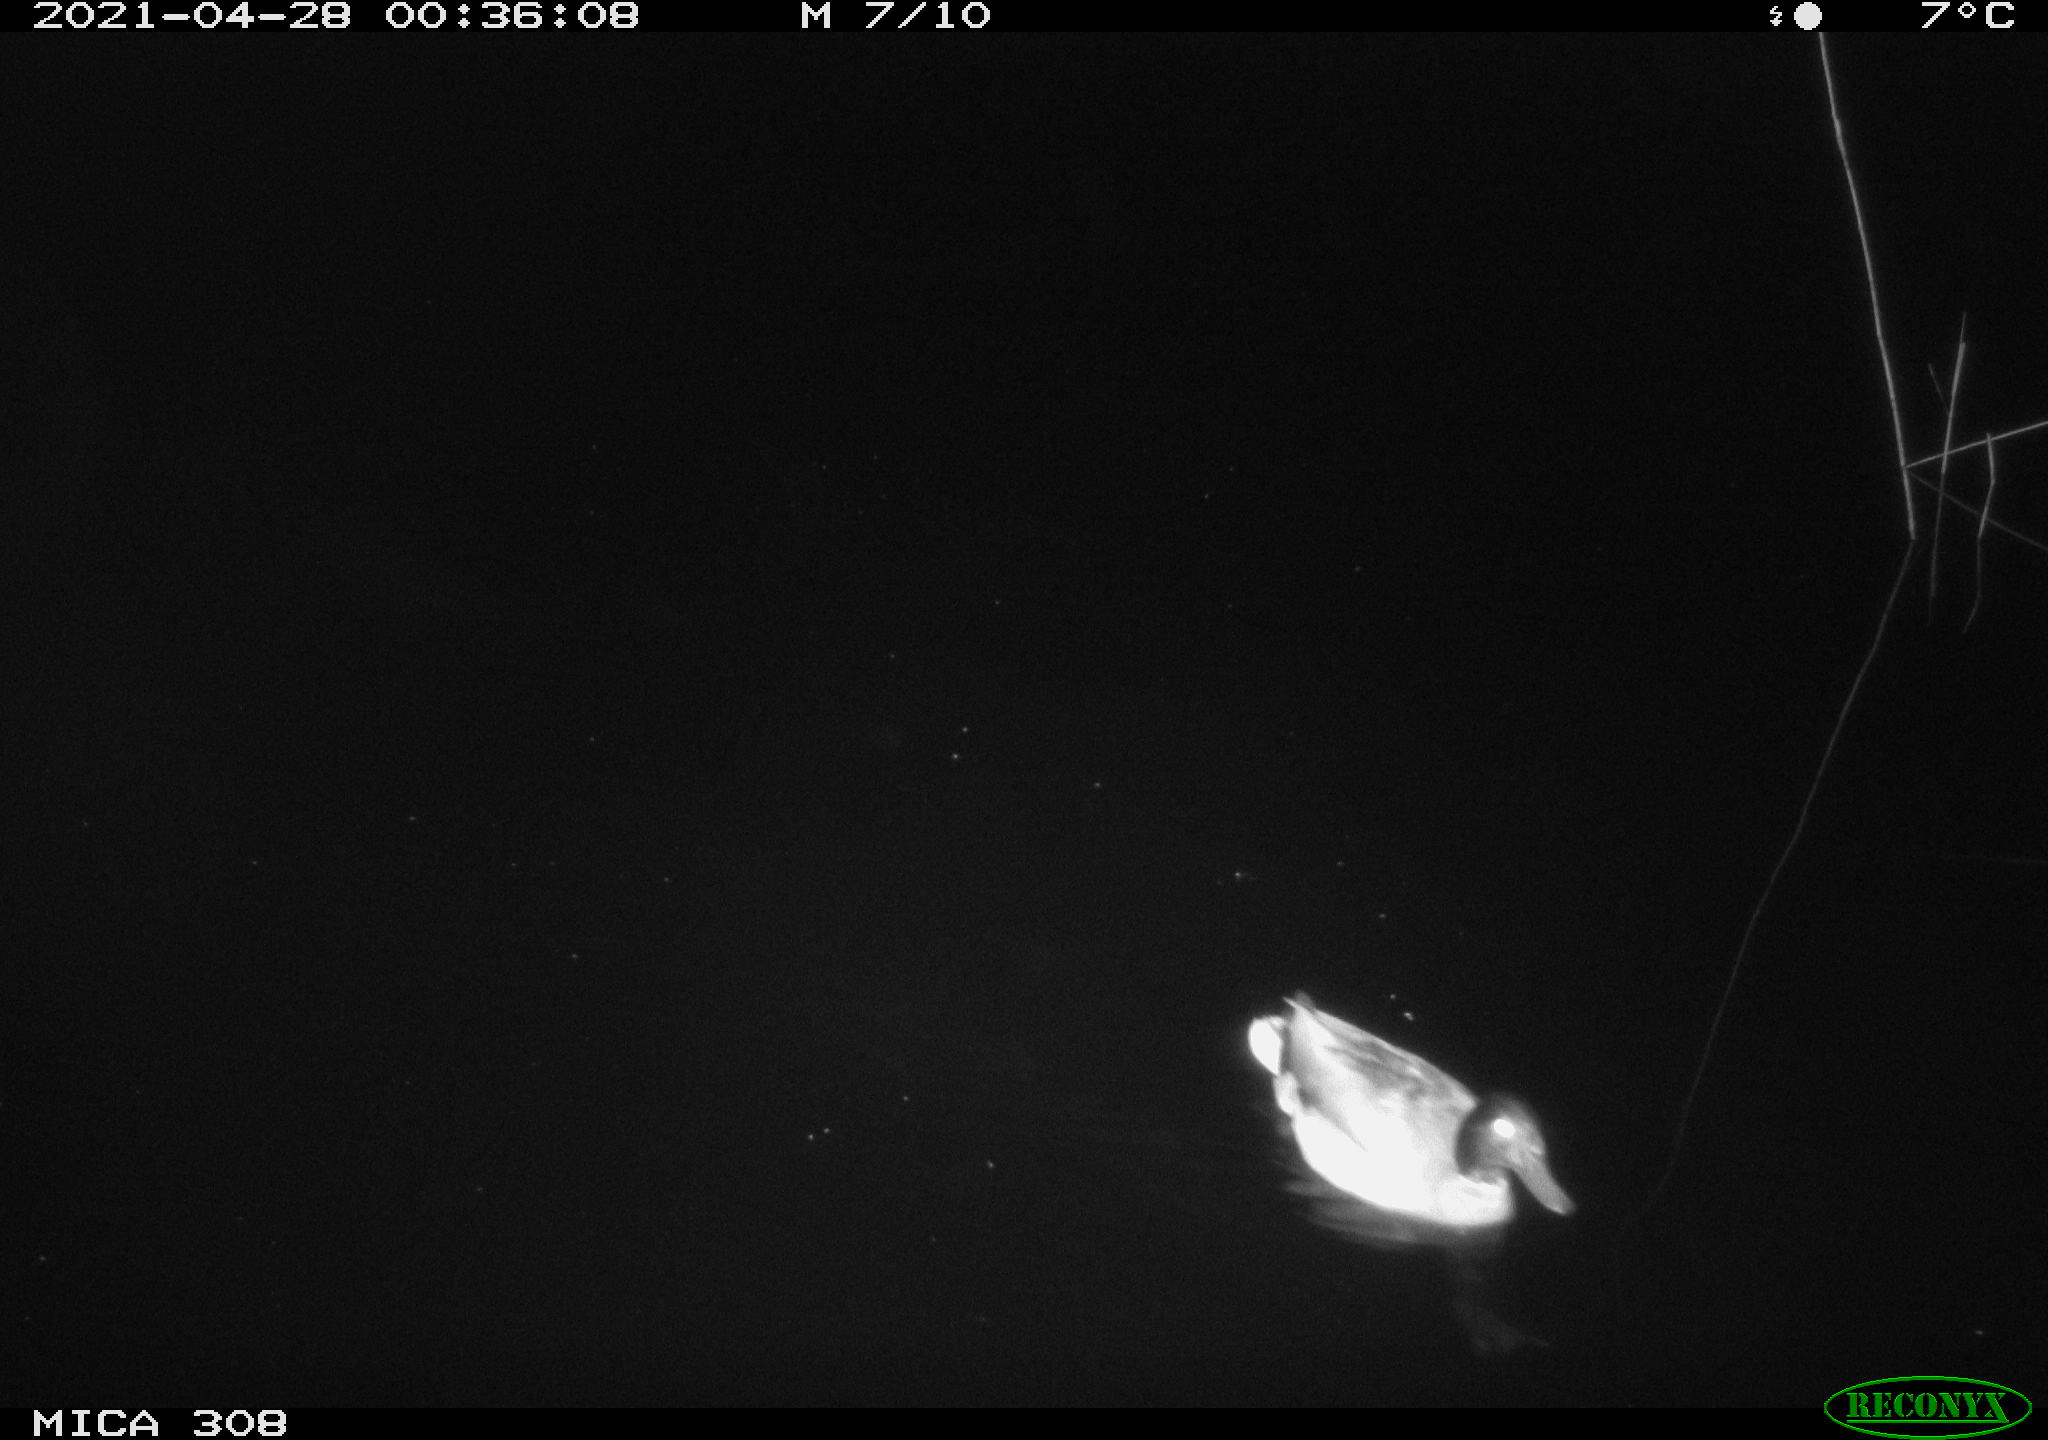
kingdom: Animalia
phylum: Chordata
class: Aves
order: Anseriformes
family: Anatidae
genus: Anas
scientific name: Anas platyrhynchos
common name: Mallard
